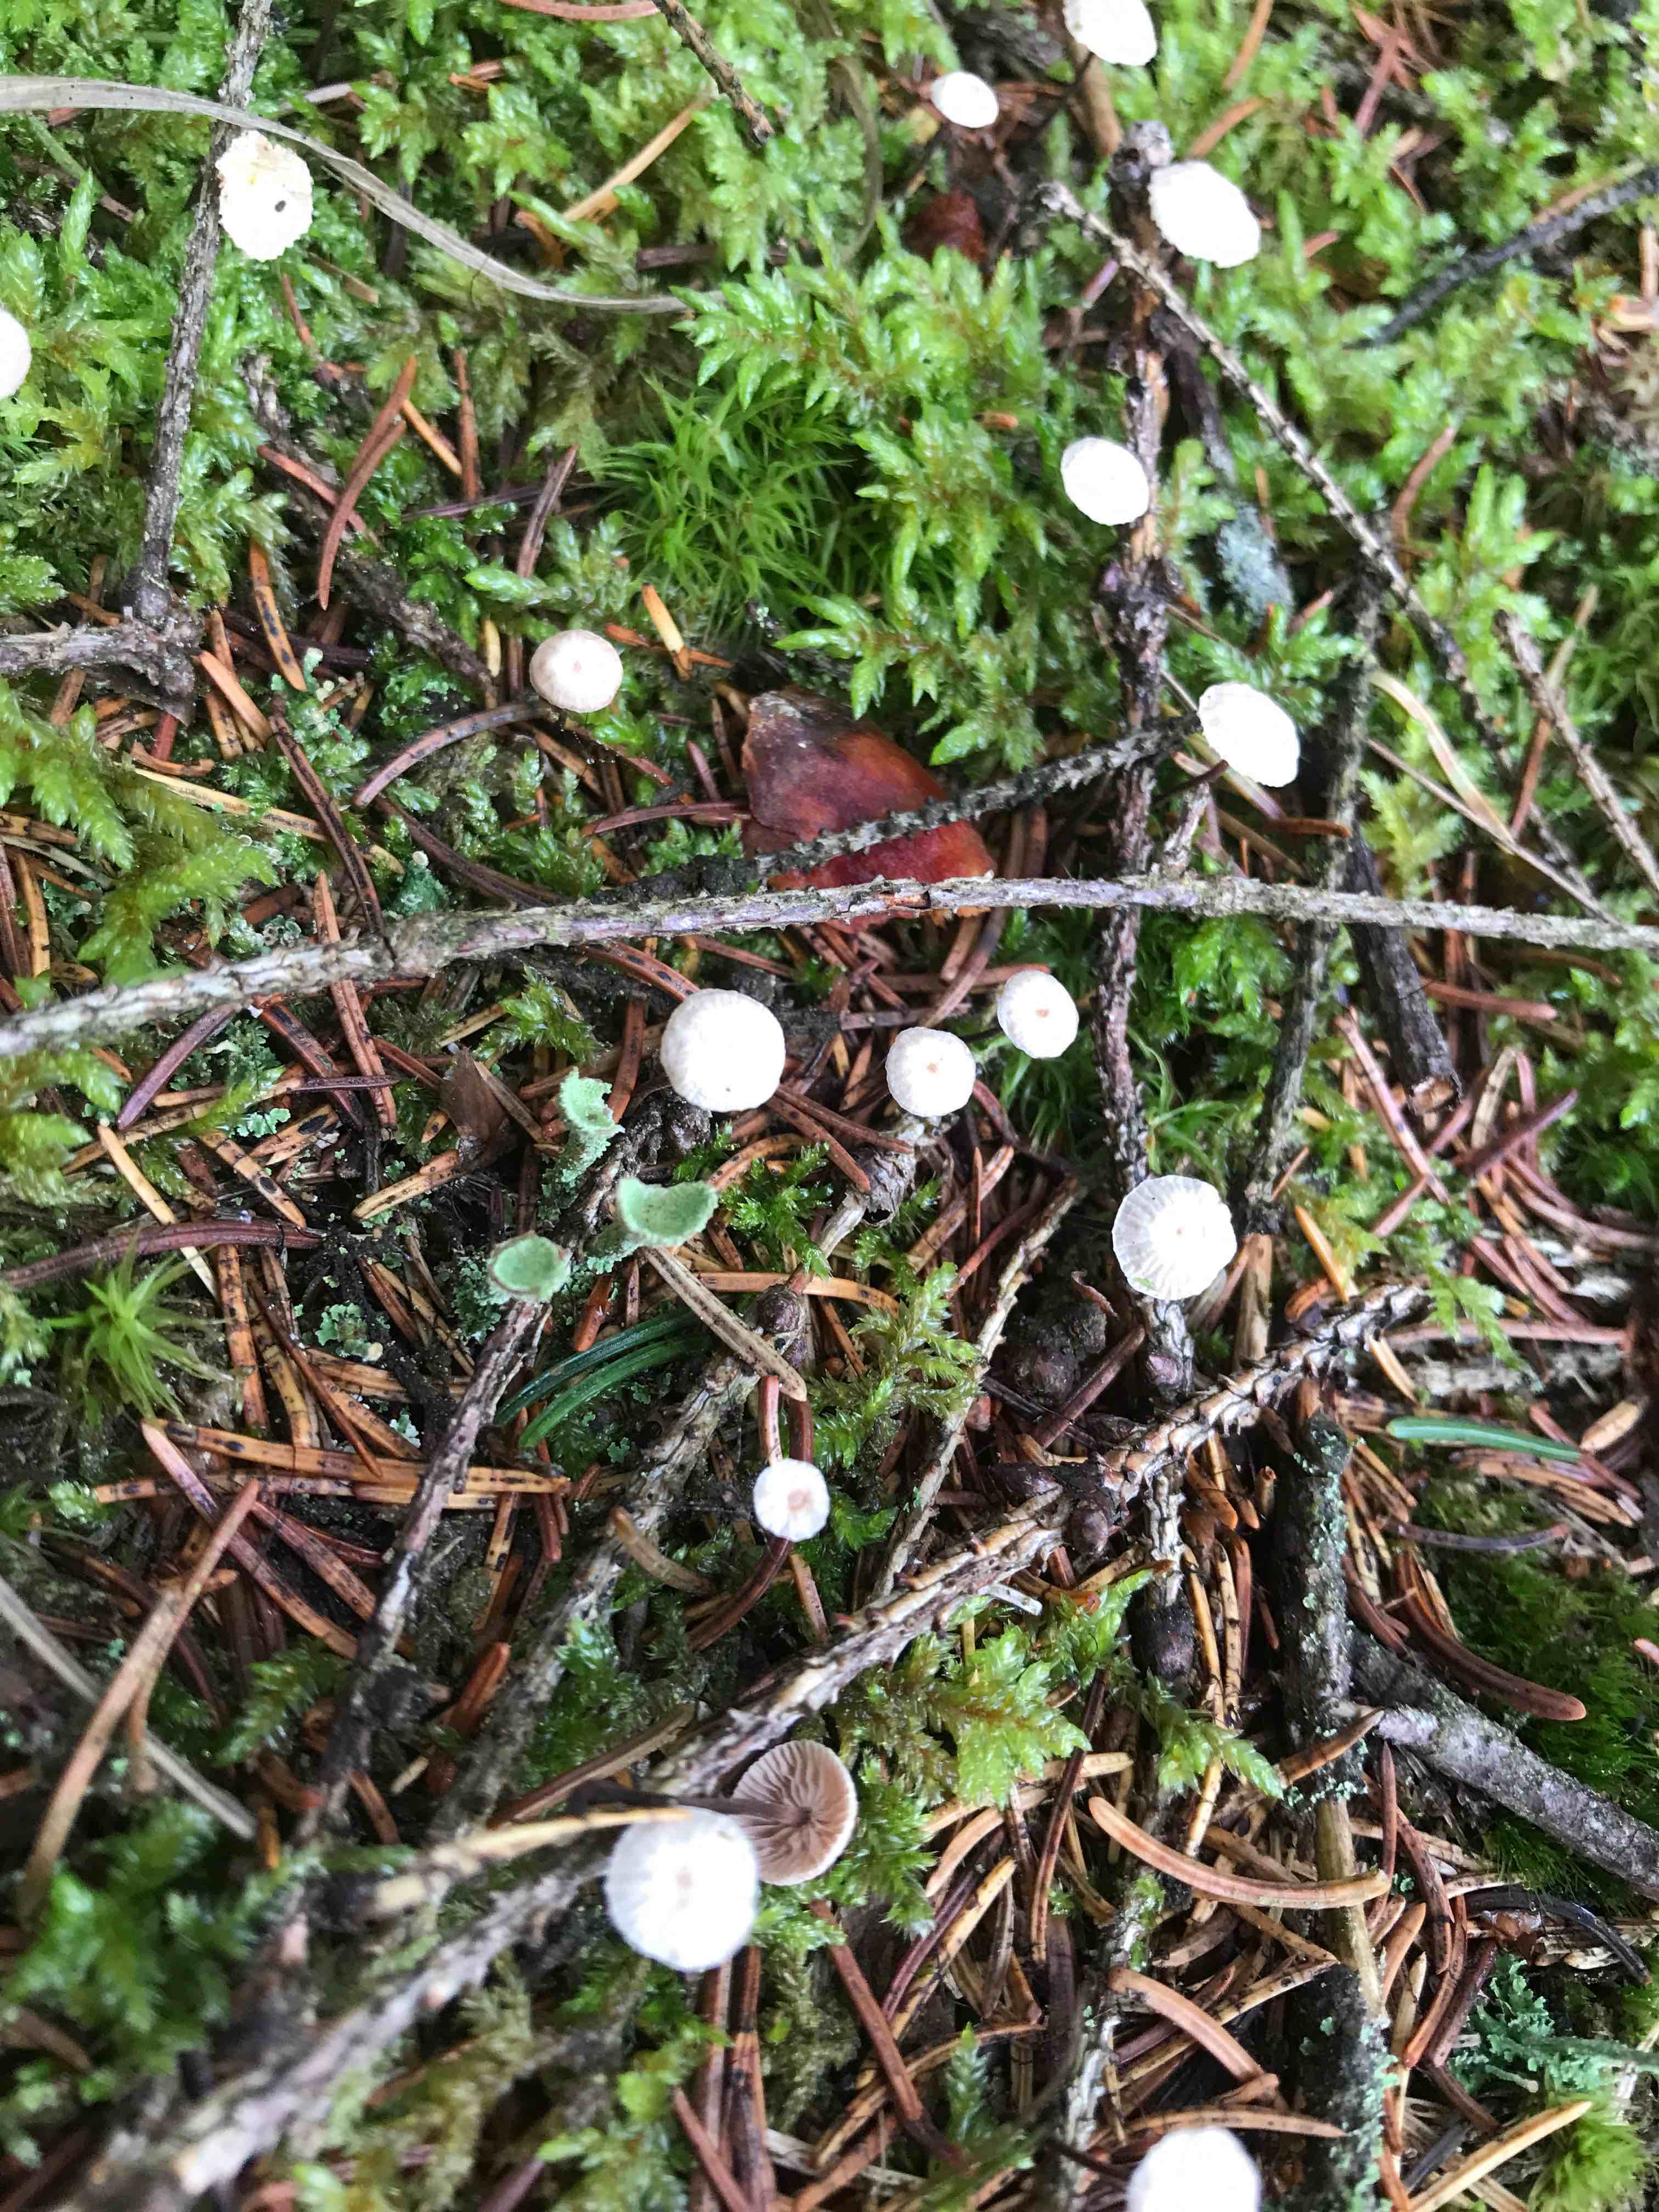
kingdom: Fungi
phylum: Basidiomycota
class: Agaricomycetes
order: Agaricales
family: Omphalotaceae
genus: Paragymnopus
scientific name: Paragymnopus perforans
